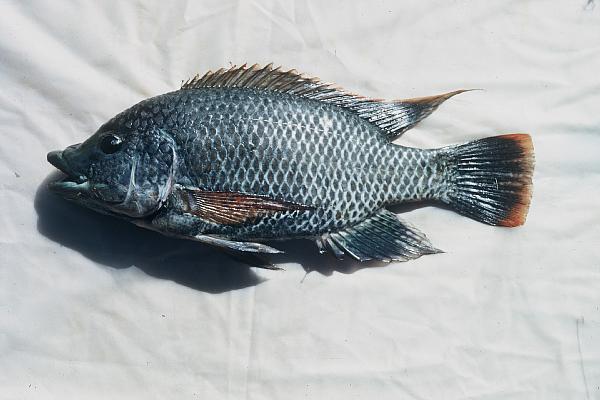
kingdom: Animalia
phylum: Chordata
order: Perciformes
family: Cichlidae
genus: Oreochromis
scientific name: Oreochromis mossambicus
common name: Mozambique tilapia
